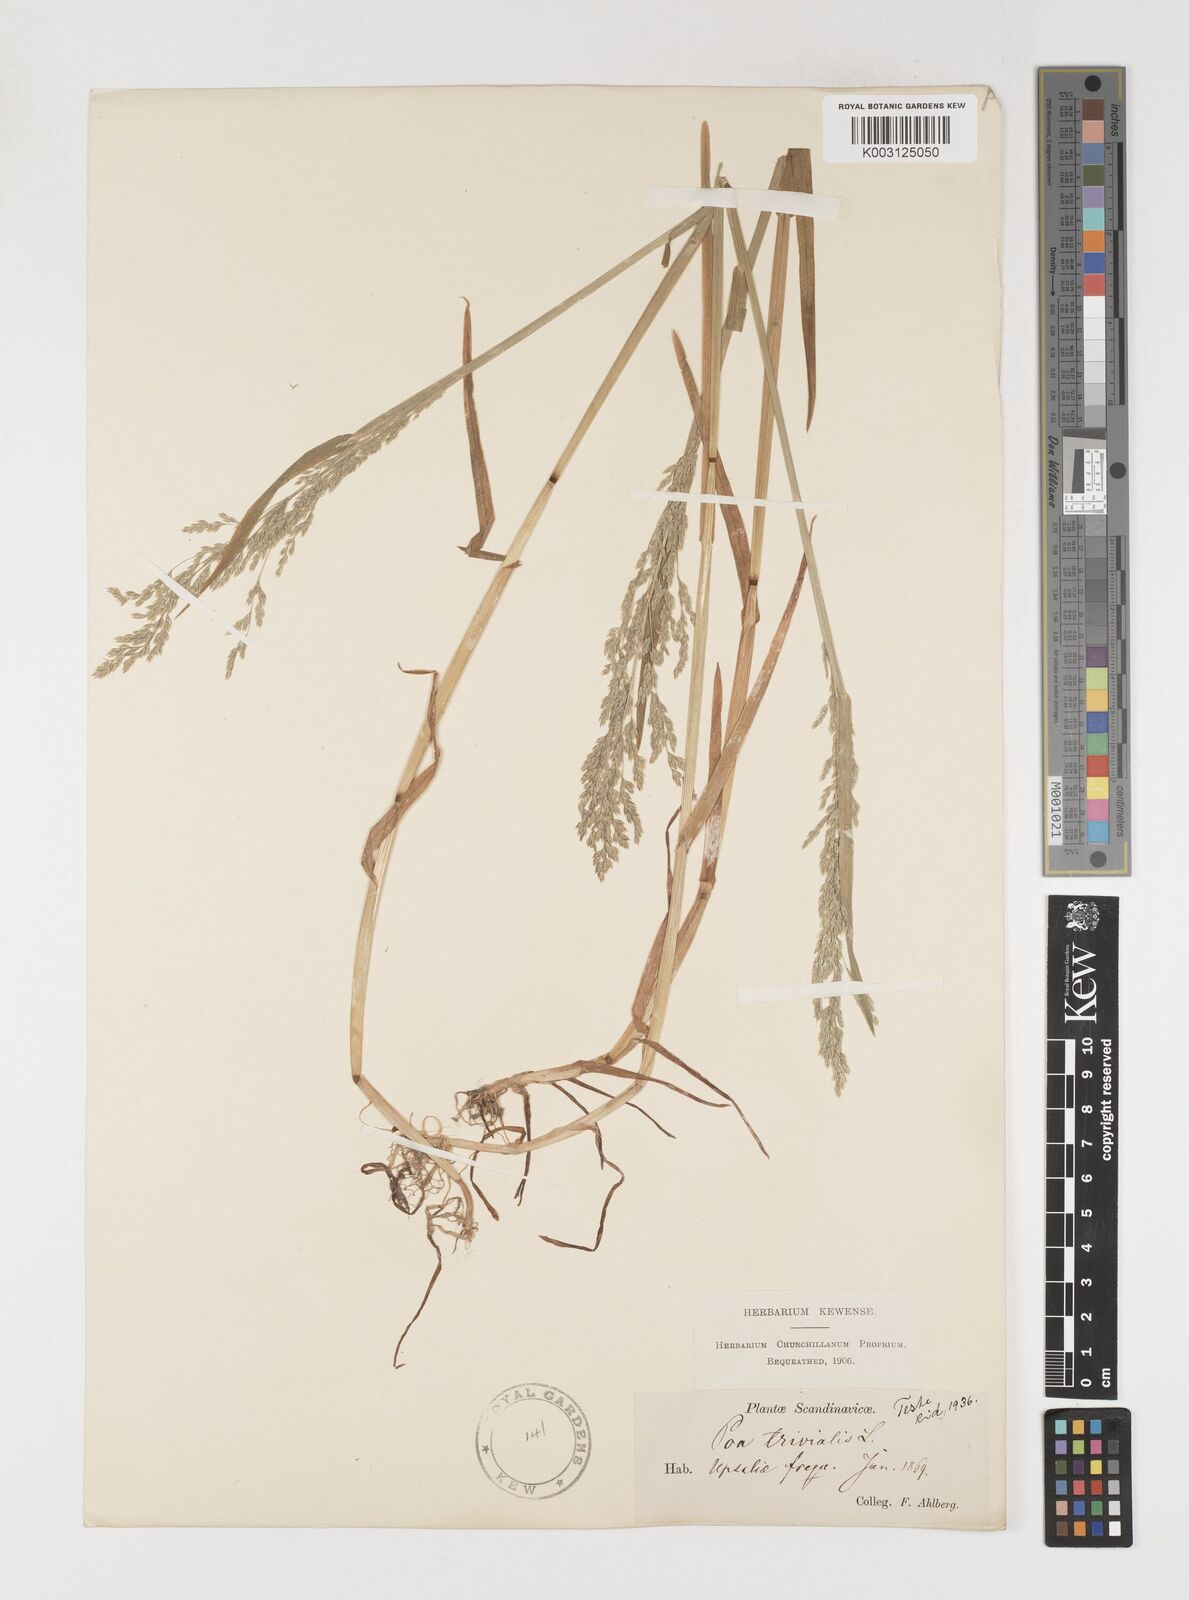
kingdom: Plantae
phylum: Tracheophyta
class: Liliopsida
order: Poales
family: Poaceae
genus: Poa
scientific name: Poa trivialis
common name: Rough bluegrass
